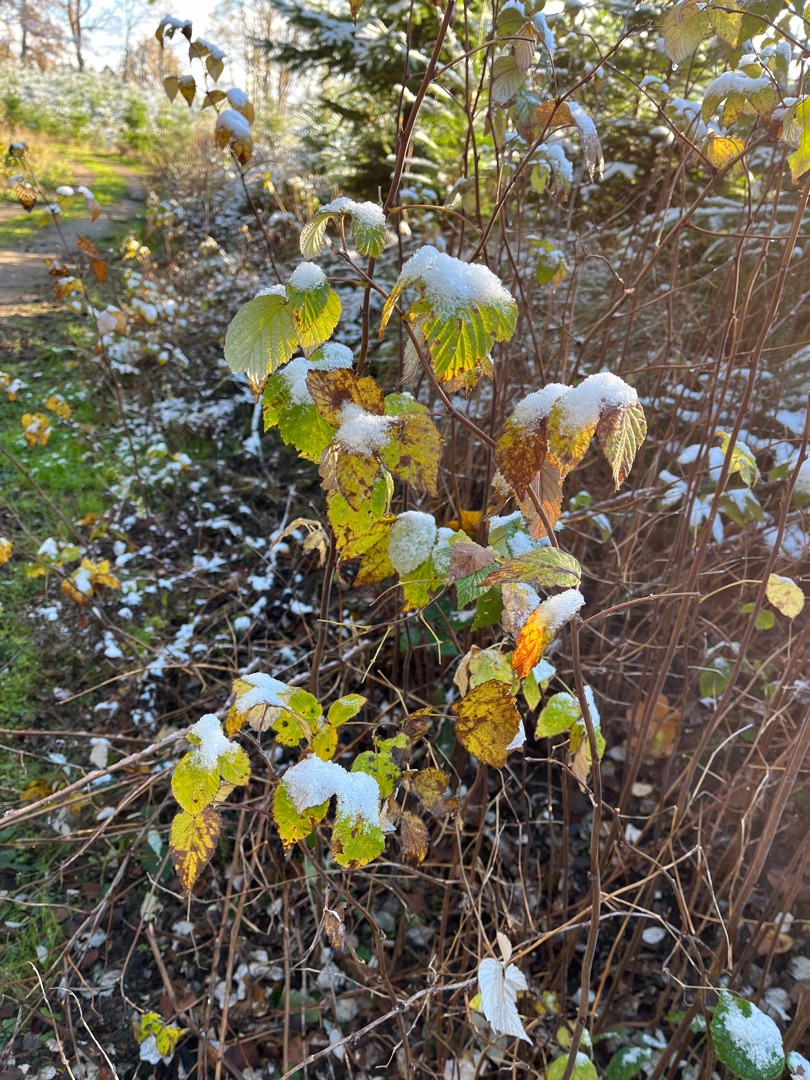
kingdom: Plantae
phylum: Tracheophyta
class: Magnoliopsida
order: Rosales
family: Rosaceae
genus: Rubus
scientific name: Rubus idaeus
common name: Hindbær
